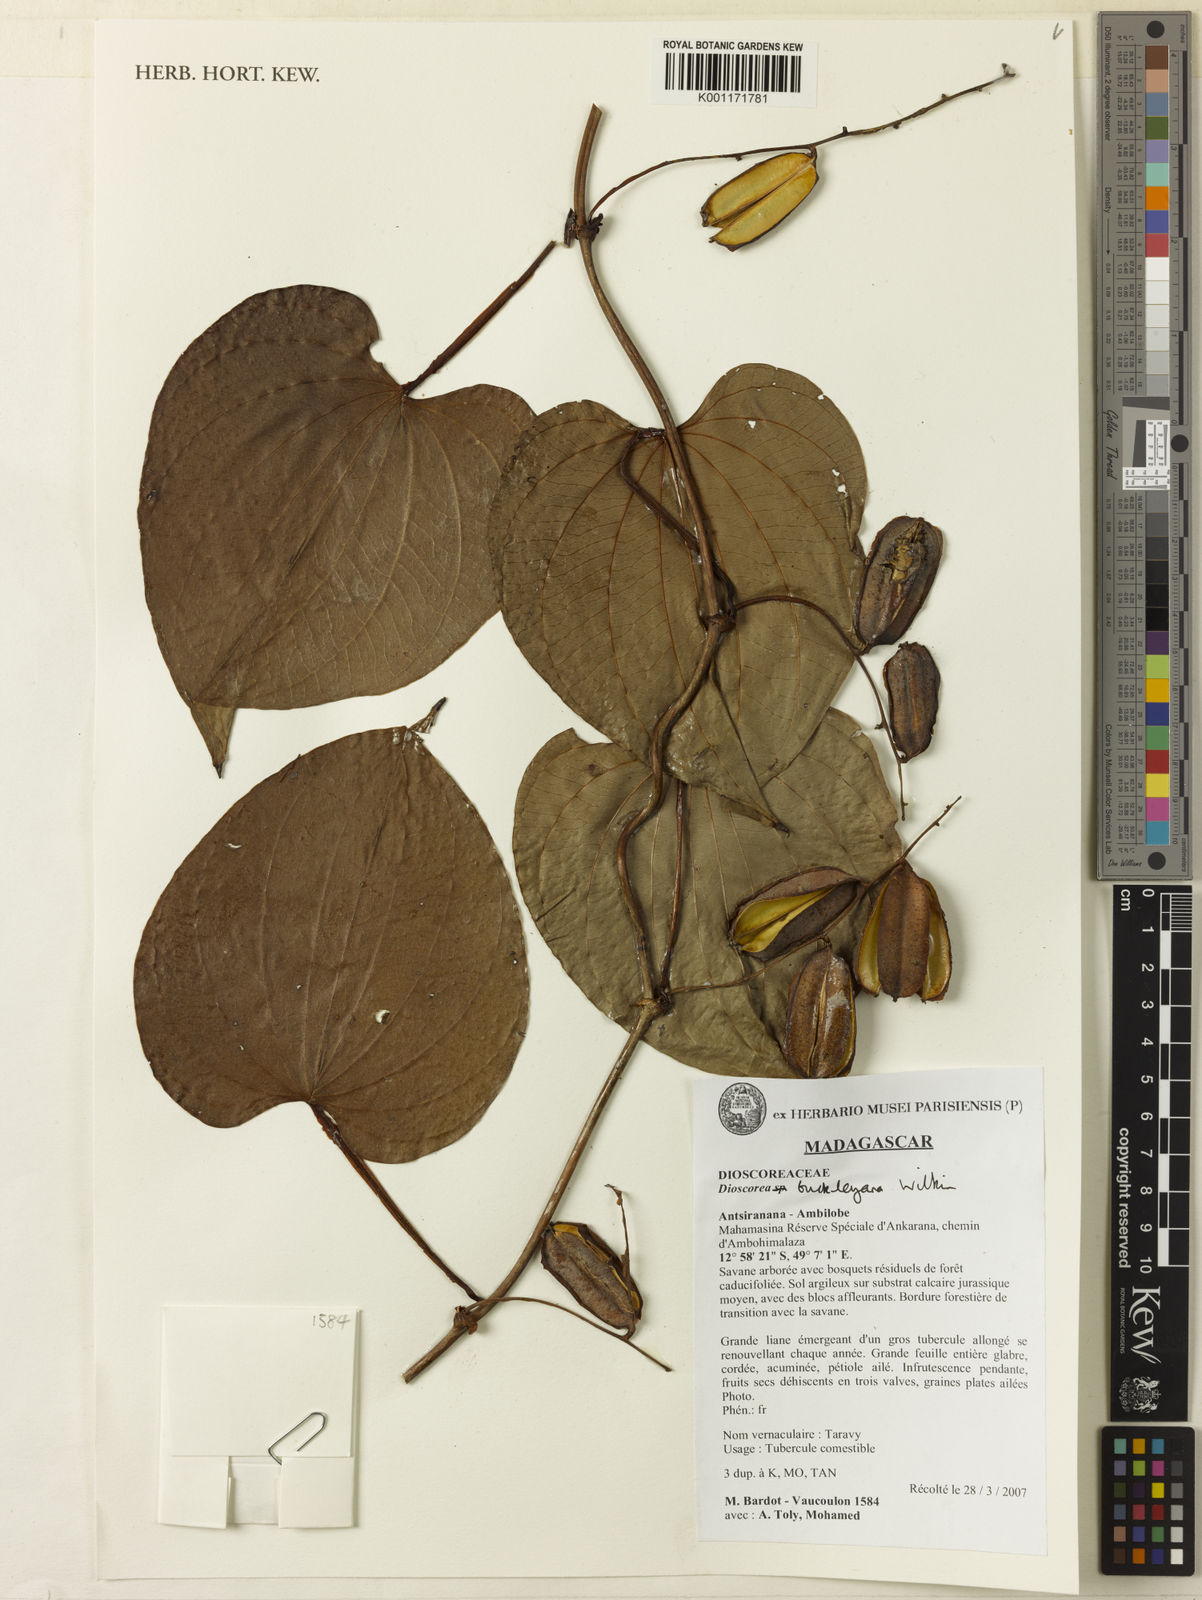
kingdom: Plantae
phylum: Tracheophyta
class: Liliopsida
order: Dioscoreales
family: Dioscoreaceae
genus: Dioscorea
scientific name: Dioscorea buckleyana
